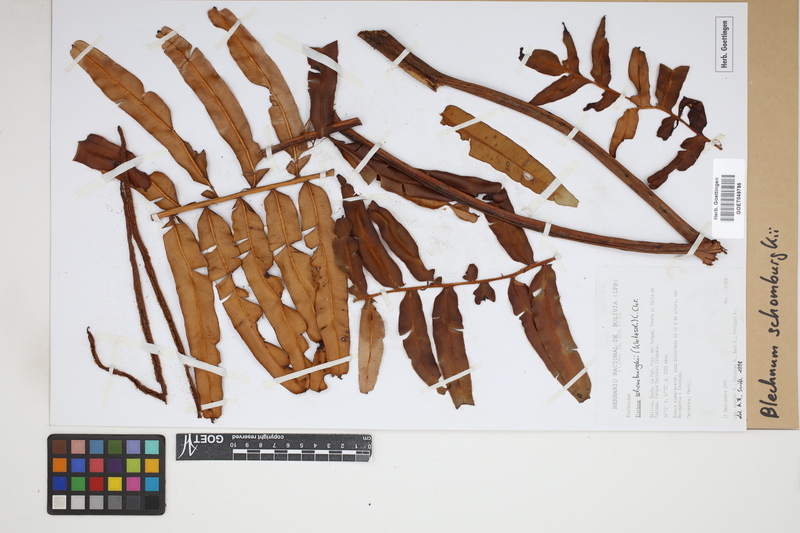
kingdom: Plantae
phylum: Tracheophyta
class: Polypodiopsida
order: Polypodiales
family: Blechnaceae
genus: Lomariocycas
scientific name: Lomariocycas schomburgkii
